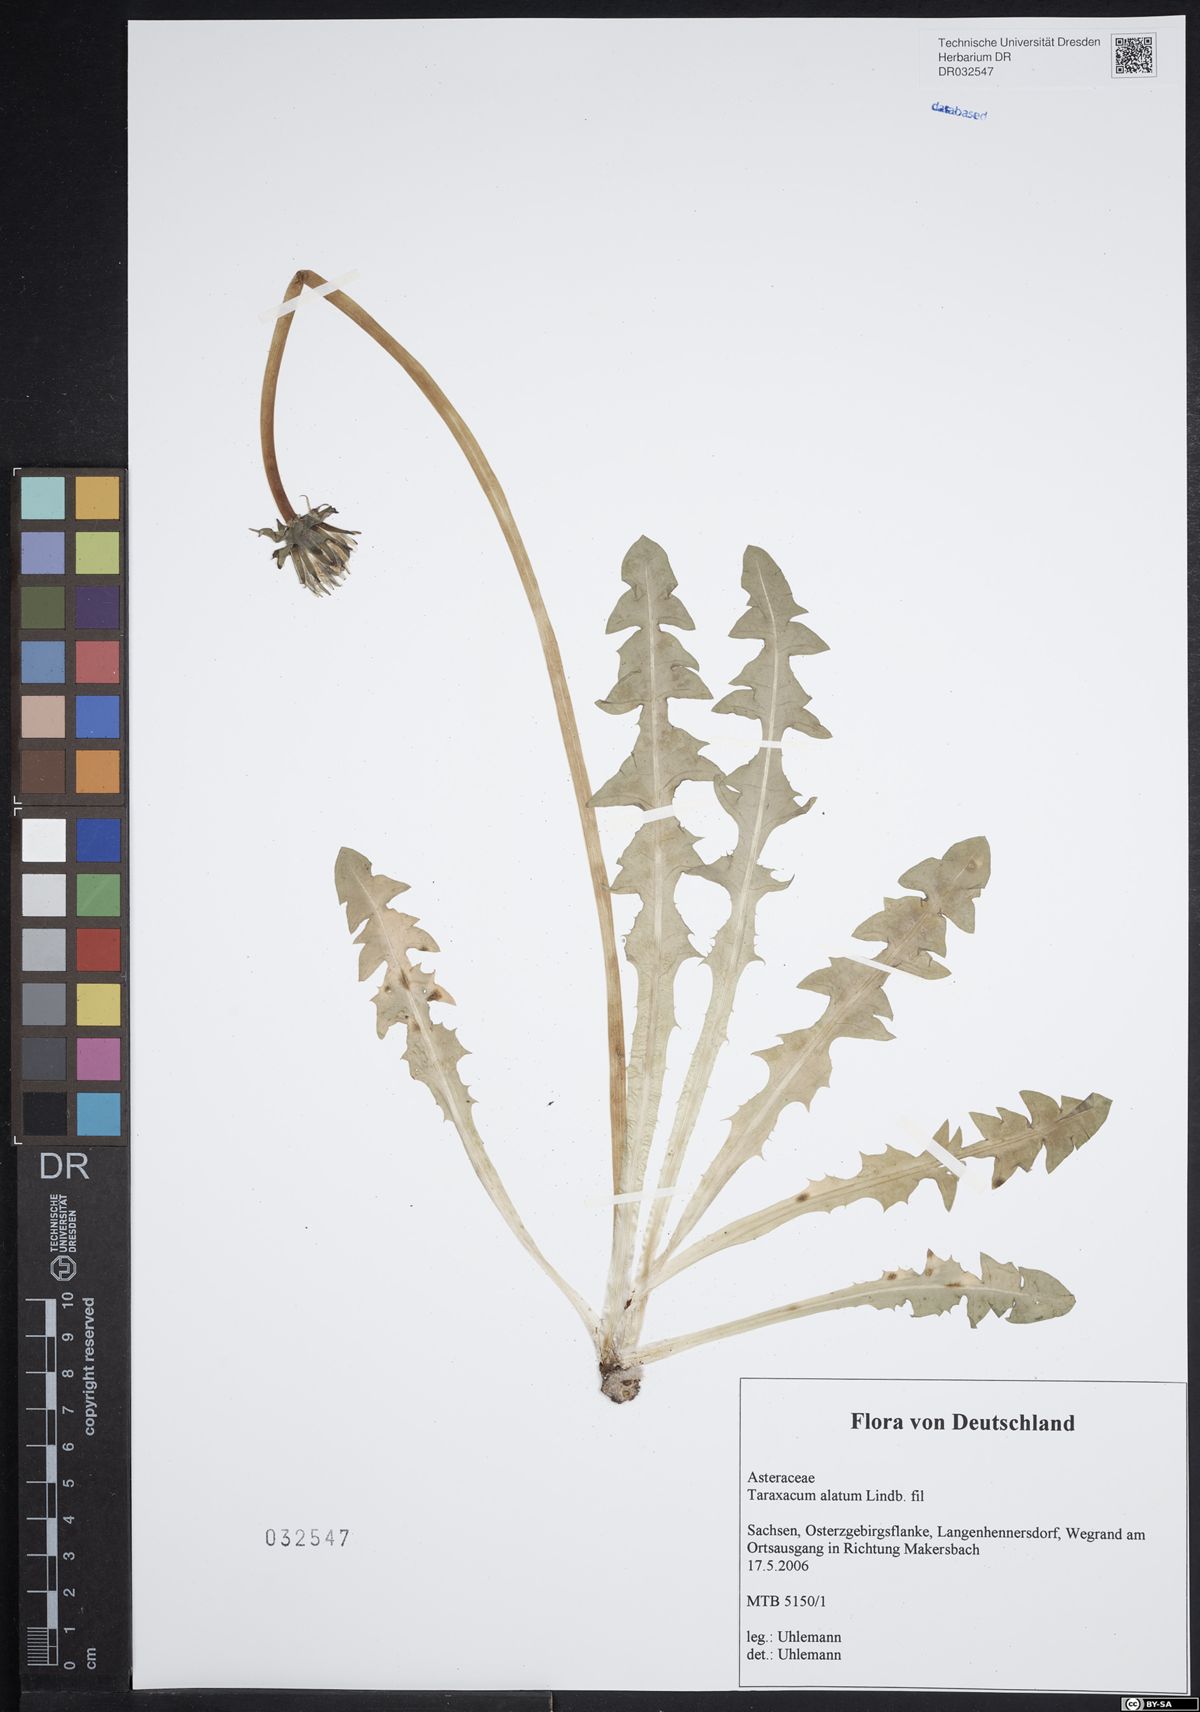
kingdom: Plantae
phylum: Tracheophyta
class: Magnoliopsida
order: Asterales
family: Asteraceae
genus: Taraxacum
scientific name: Taraxacum alatum
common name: Green dandelion
